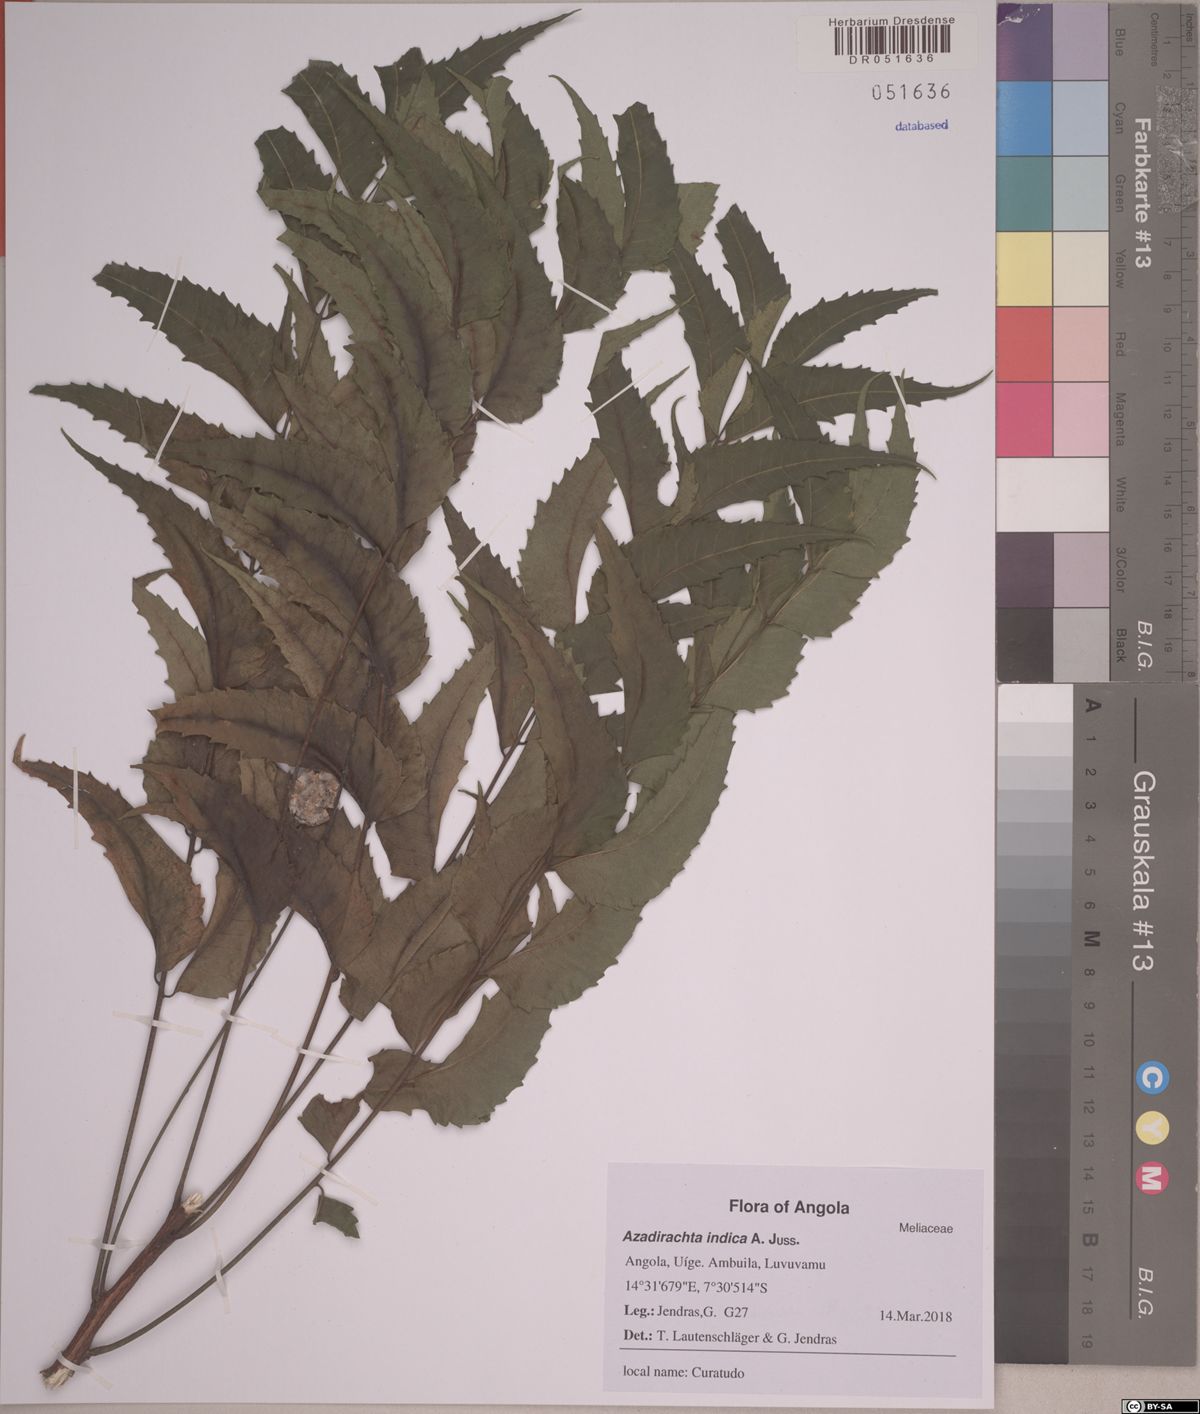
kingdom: Plantae
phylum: Tracheophyta
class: Magnoliopsida
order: Sapindales
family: Meliaceae
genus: Azadirachta
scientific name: Azadirachta indica
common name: Neem
